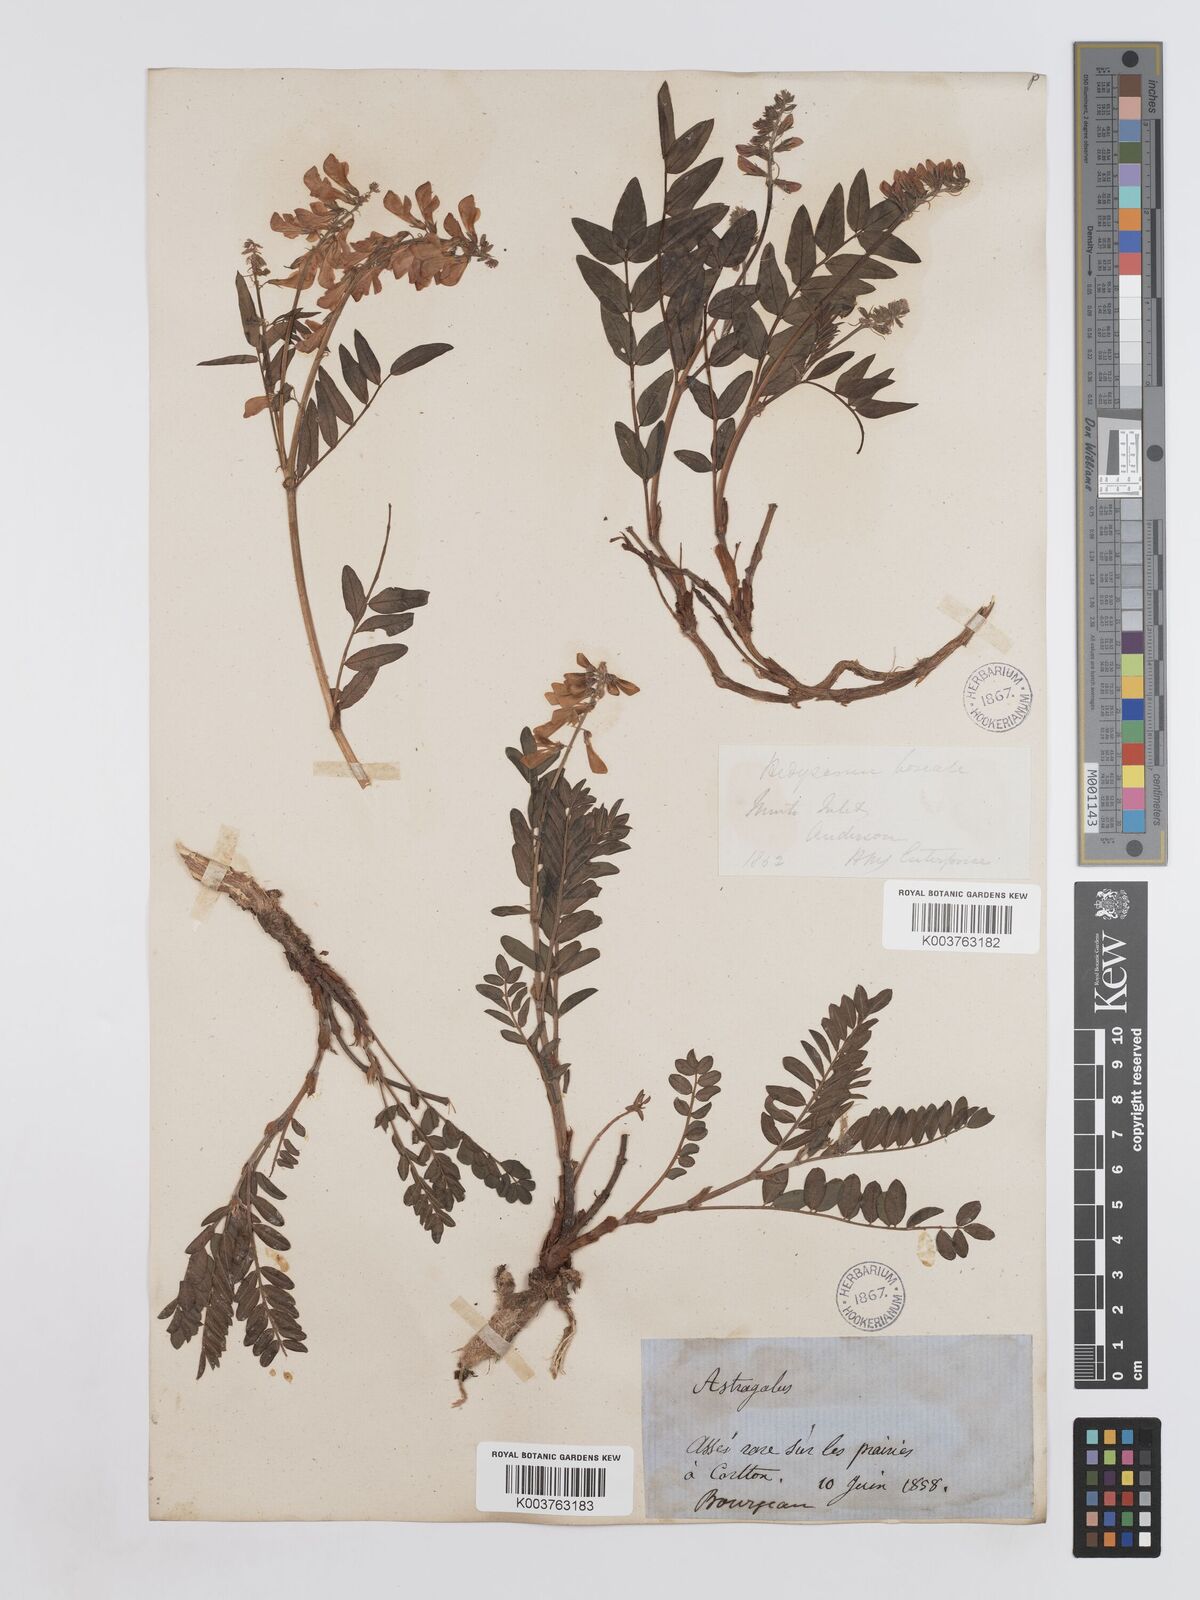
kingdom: Plantae
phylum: Tracheophyta
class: Magnoliopsida
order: Fabales
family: Fabaceae
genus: Hedysarum
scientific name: Hedysarum boreale
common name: Northern sweet-vetch
